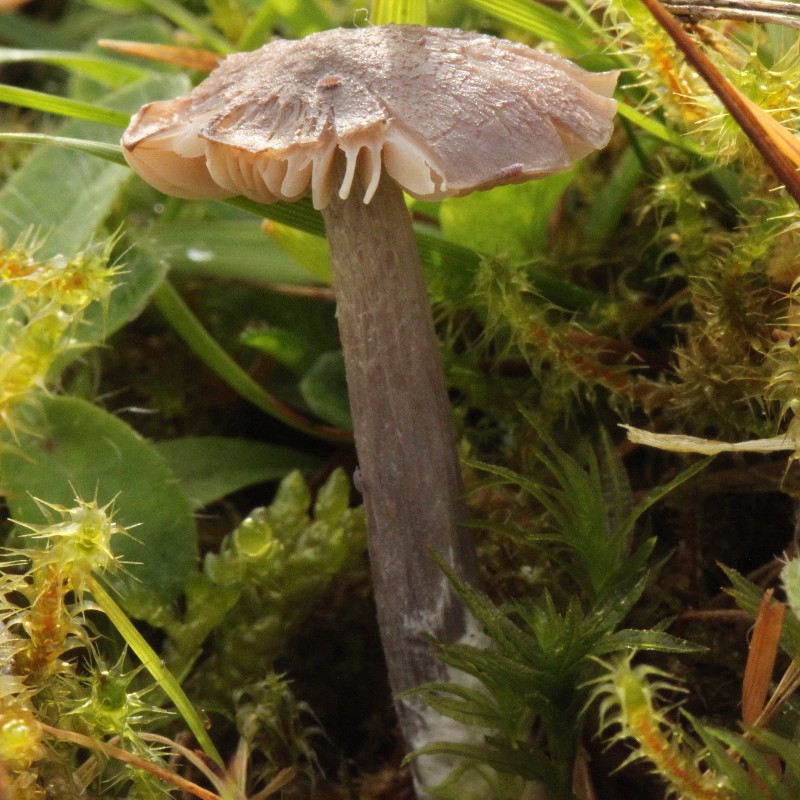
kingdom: Fungi
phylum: Basidiomycota
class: Agaricomycetes
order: Agaricales
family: Entolomataceae
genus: Entoloma
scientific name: Entoloma griseocyaneum
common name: gråblå rødblad
